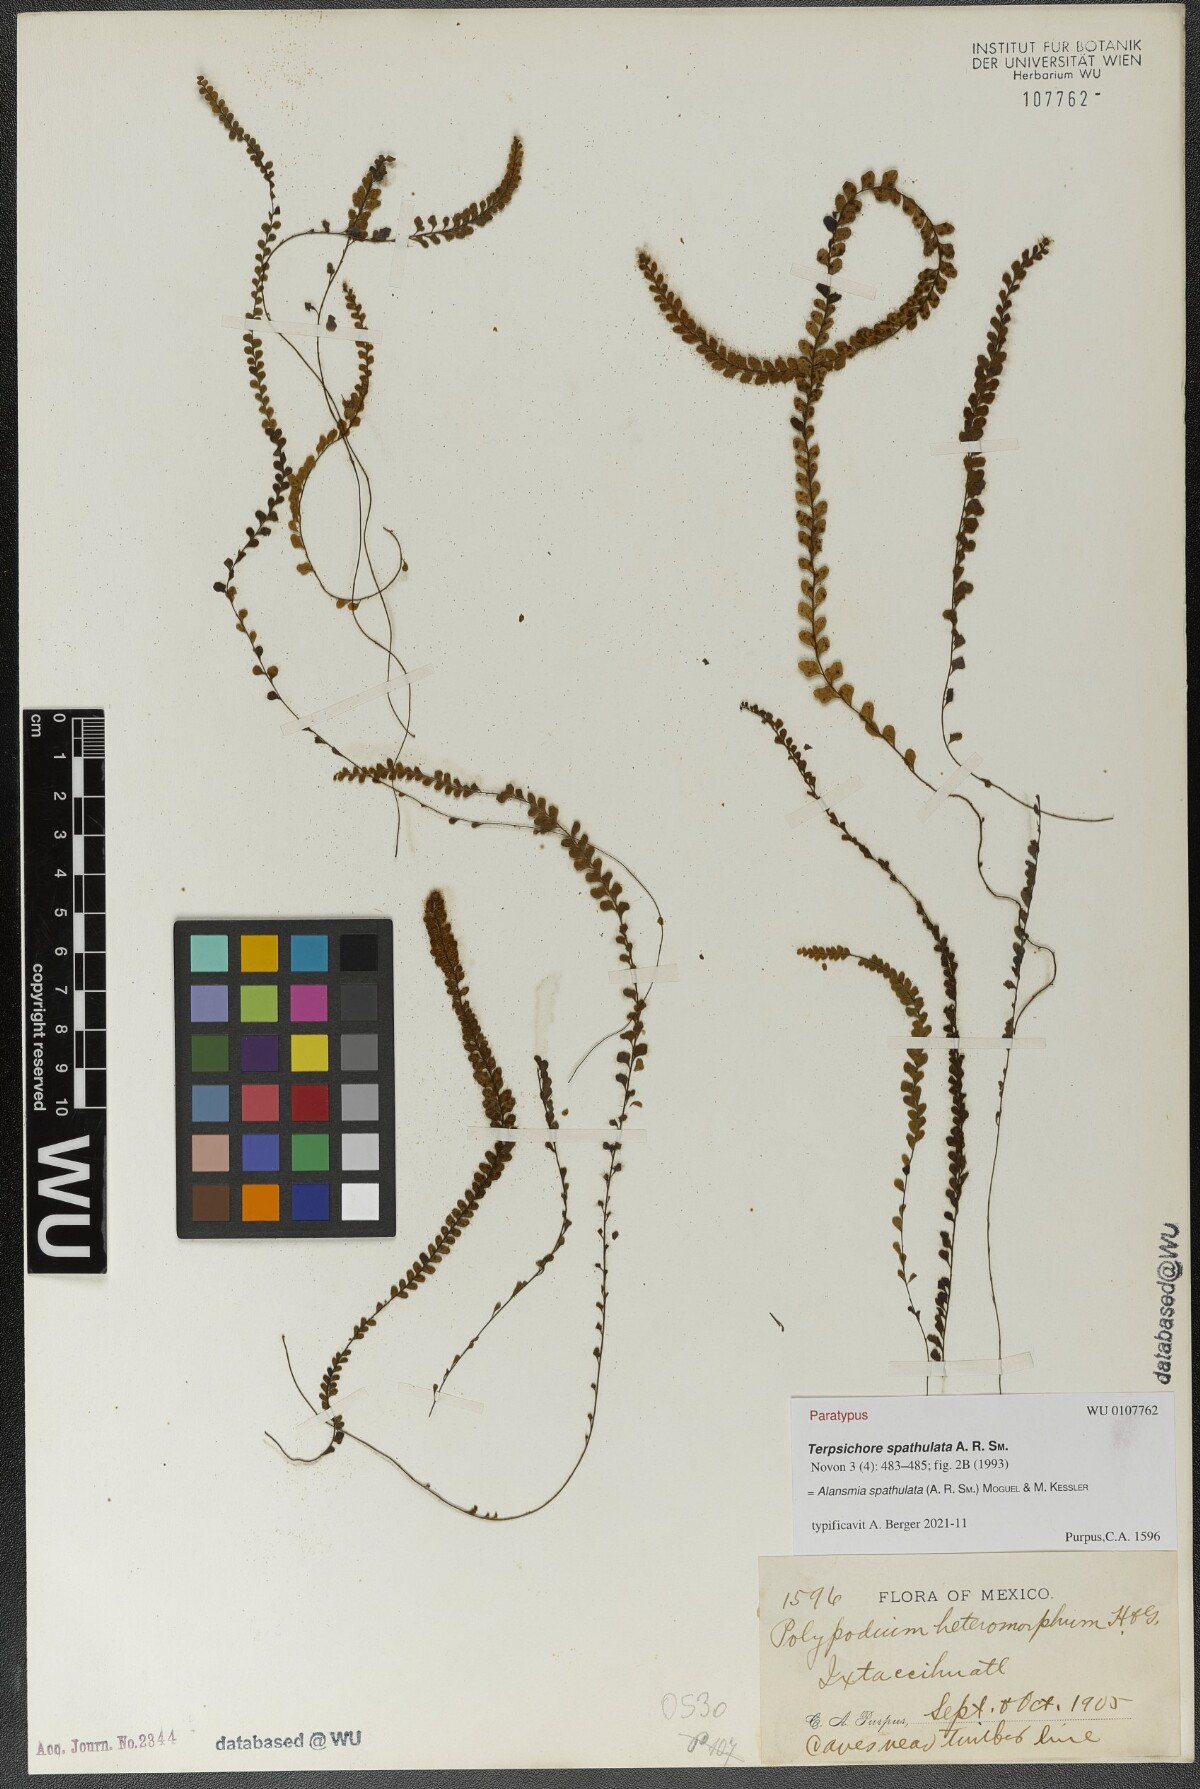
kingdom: Plantae
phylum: Tracheophyta
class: Polypodiopsida
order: Polypodiales
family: Polypodiaceae
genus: Alansmia
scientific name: Alansmia spathulata
